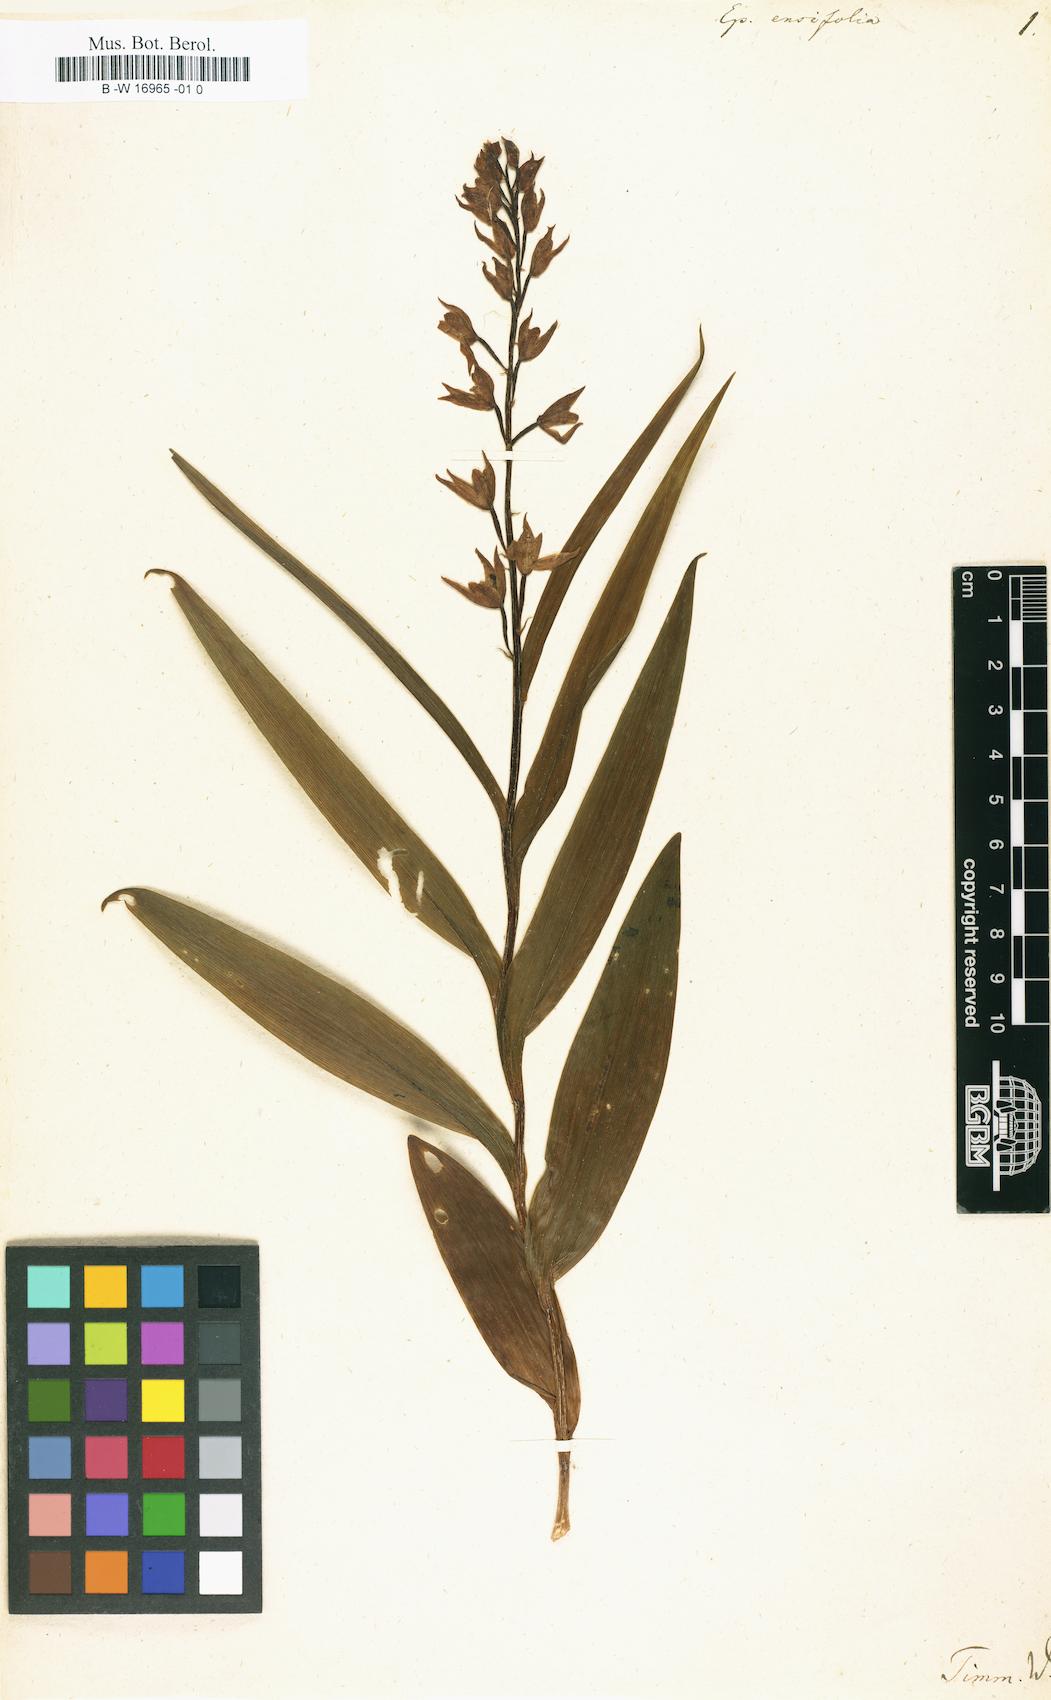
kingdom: Plantae
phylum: Tracheophyta
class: Liliopsida
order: Asparagales
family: Orchidaceae
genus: Cephalanthera
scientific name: Cephalanthera longifolia
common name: Narrow-leaved helleborine
